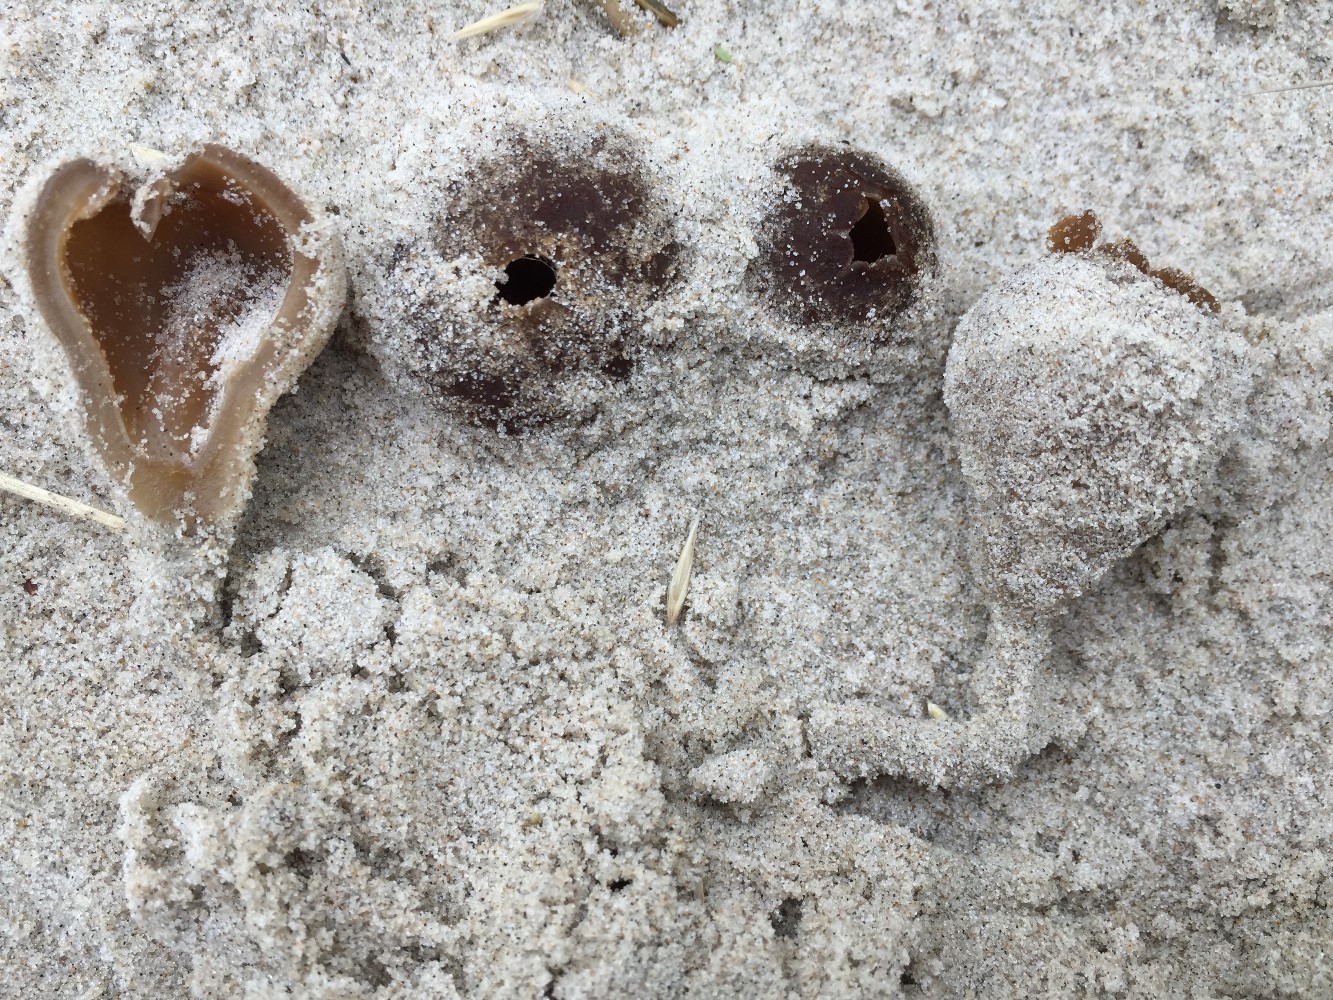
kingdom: Fungi
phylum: Ascomycota
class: Pezizomycetes
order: Pezizales
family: Pyronemataceae
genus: Lamprospora
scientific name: Lamprospora ammophila
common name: klit-bægersvamp
